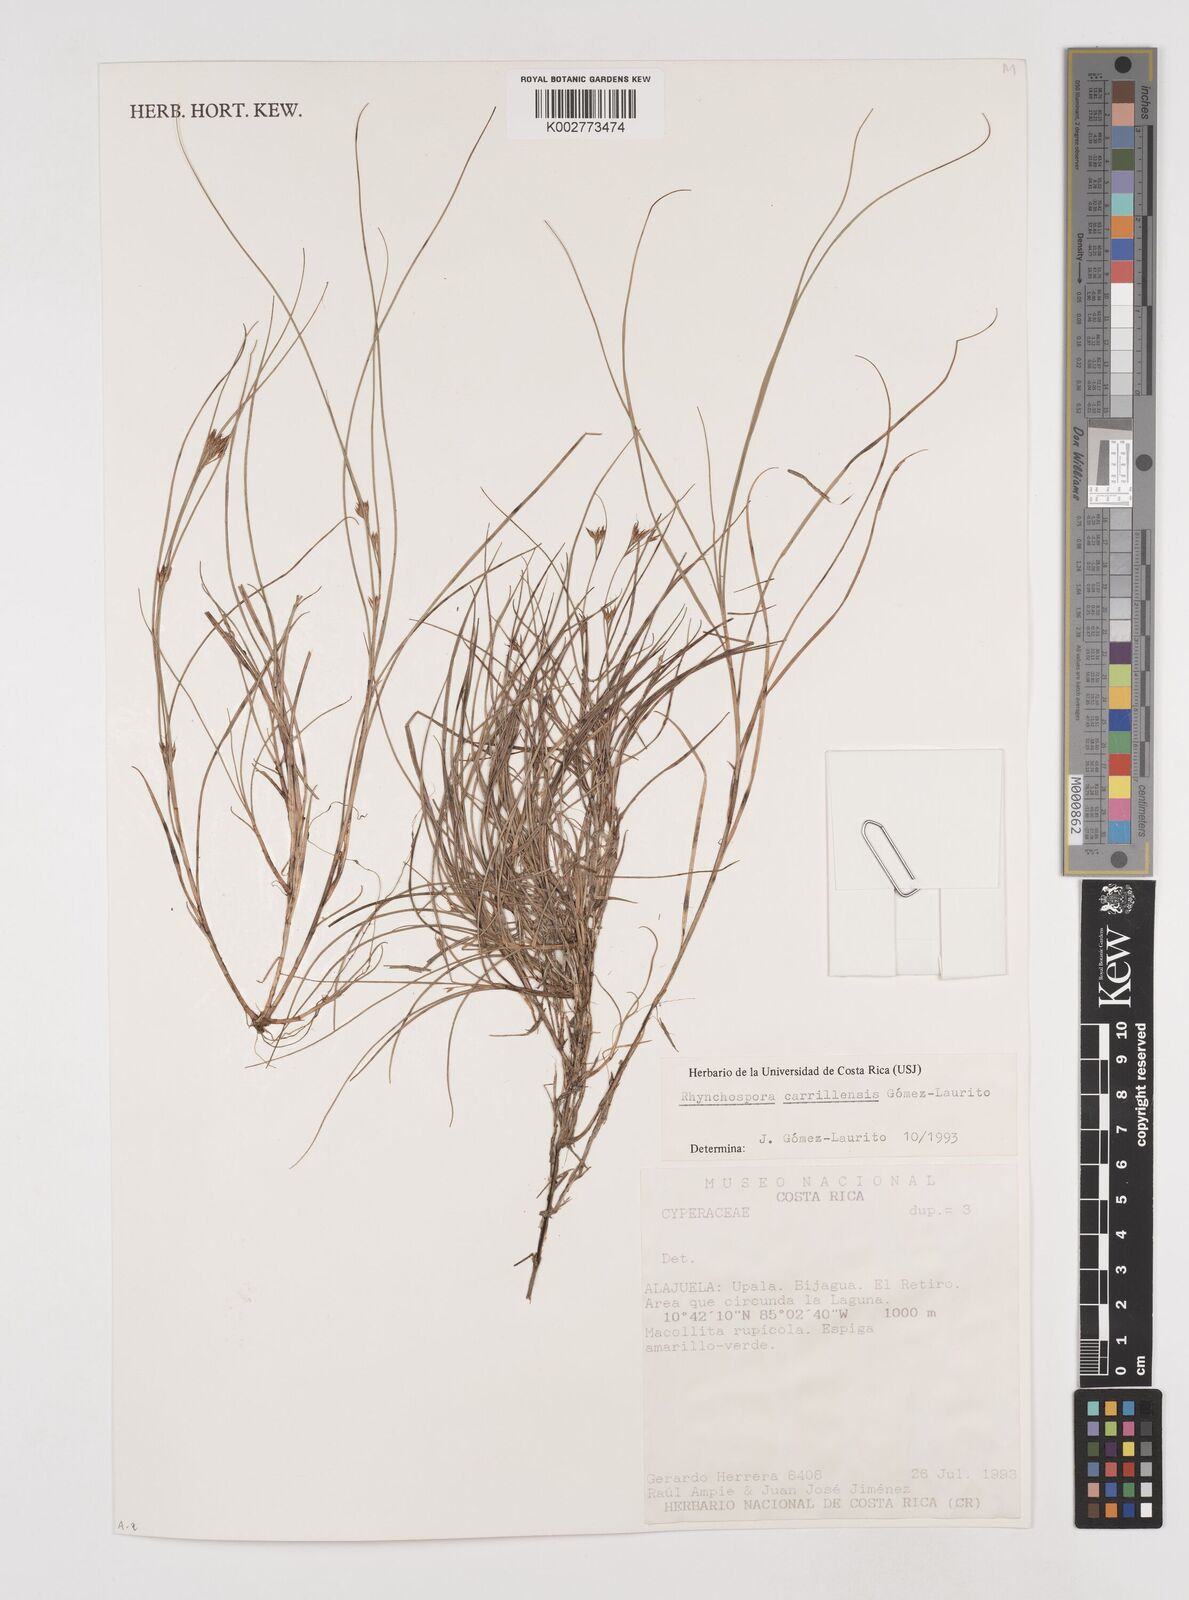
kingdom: Plantae
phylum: Tracheophyta
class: Liliopsida
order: Poales
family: Cyperaceae
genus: Rhynchospora
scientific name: Rhynchospora carrillensis
